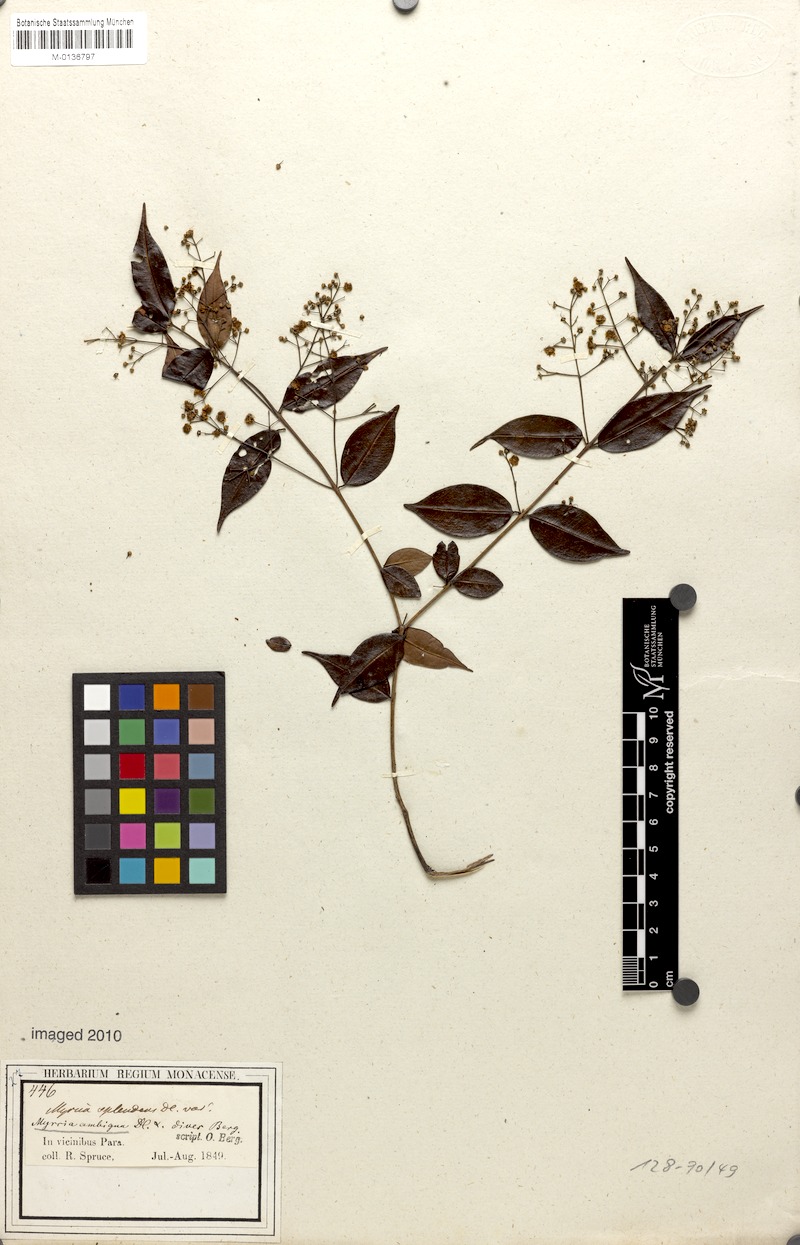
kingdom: Plantae
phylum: Tracheophyta
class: Magnoliopsida
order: Myrtales
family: Myrtaceae
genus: Myrcia
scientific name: Myrcia sylvatica
